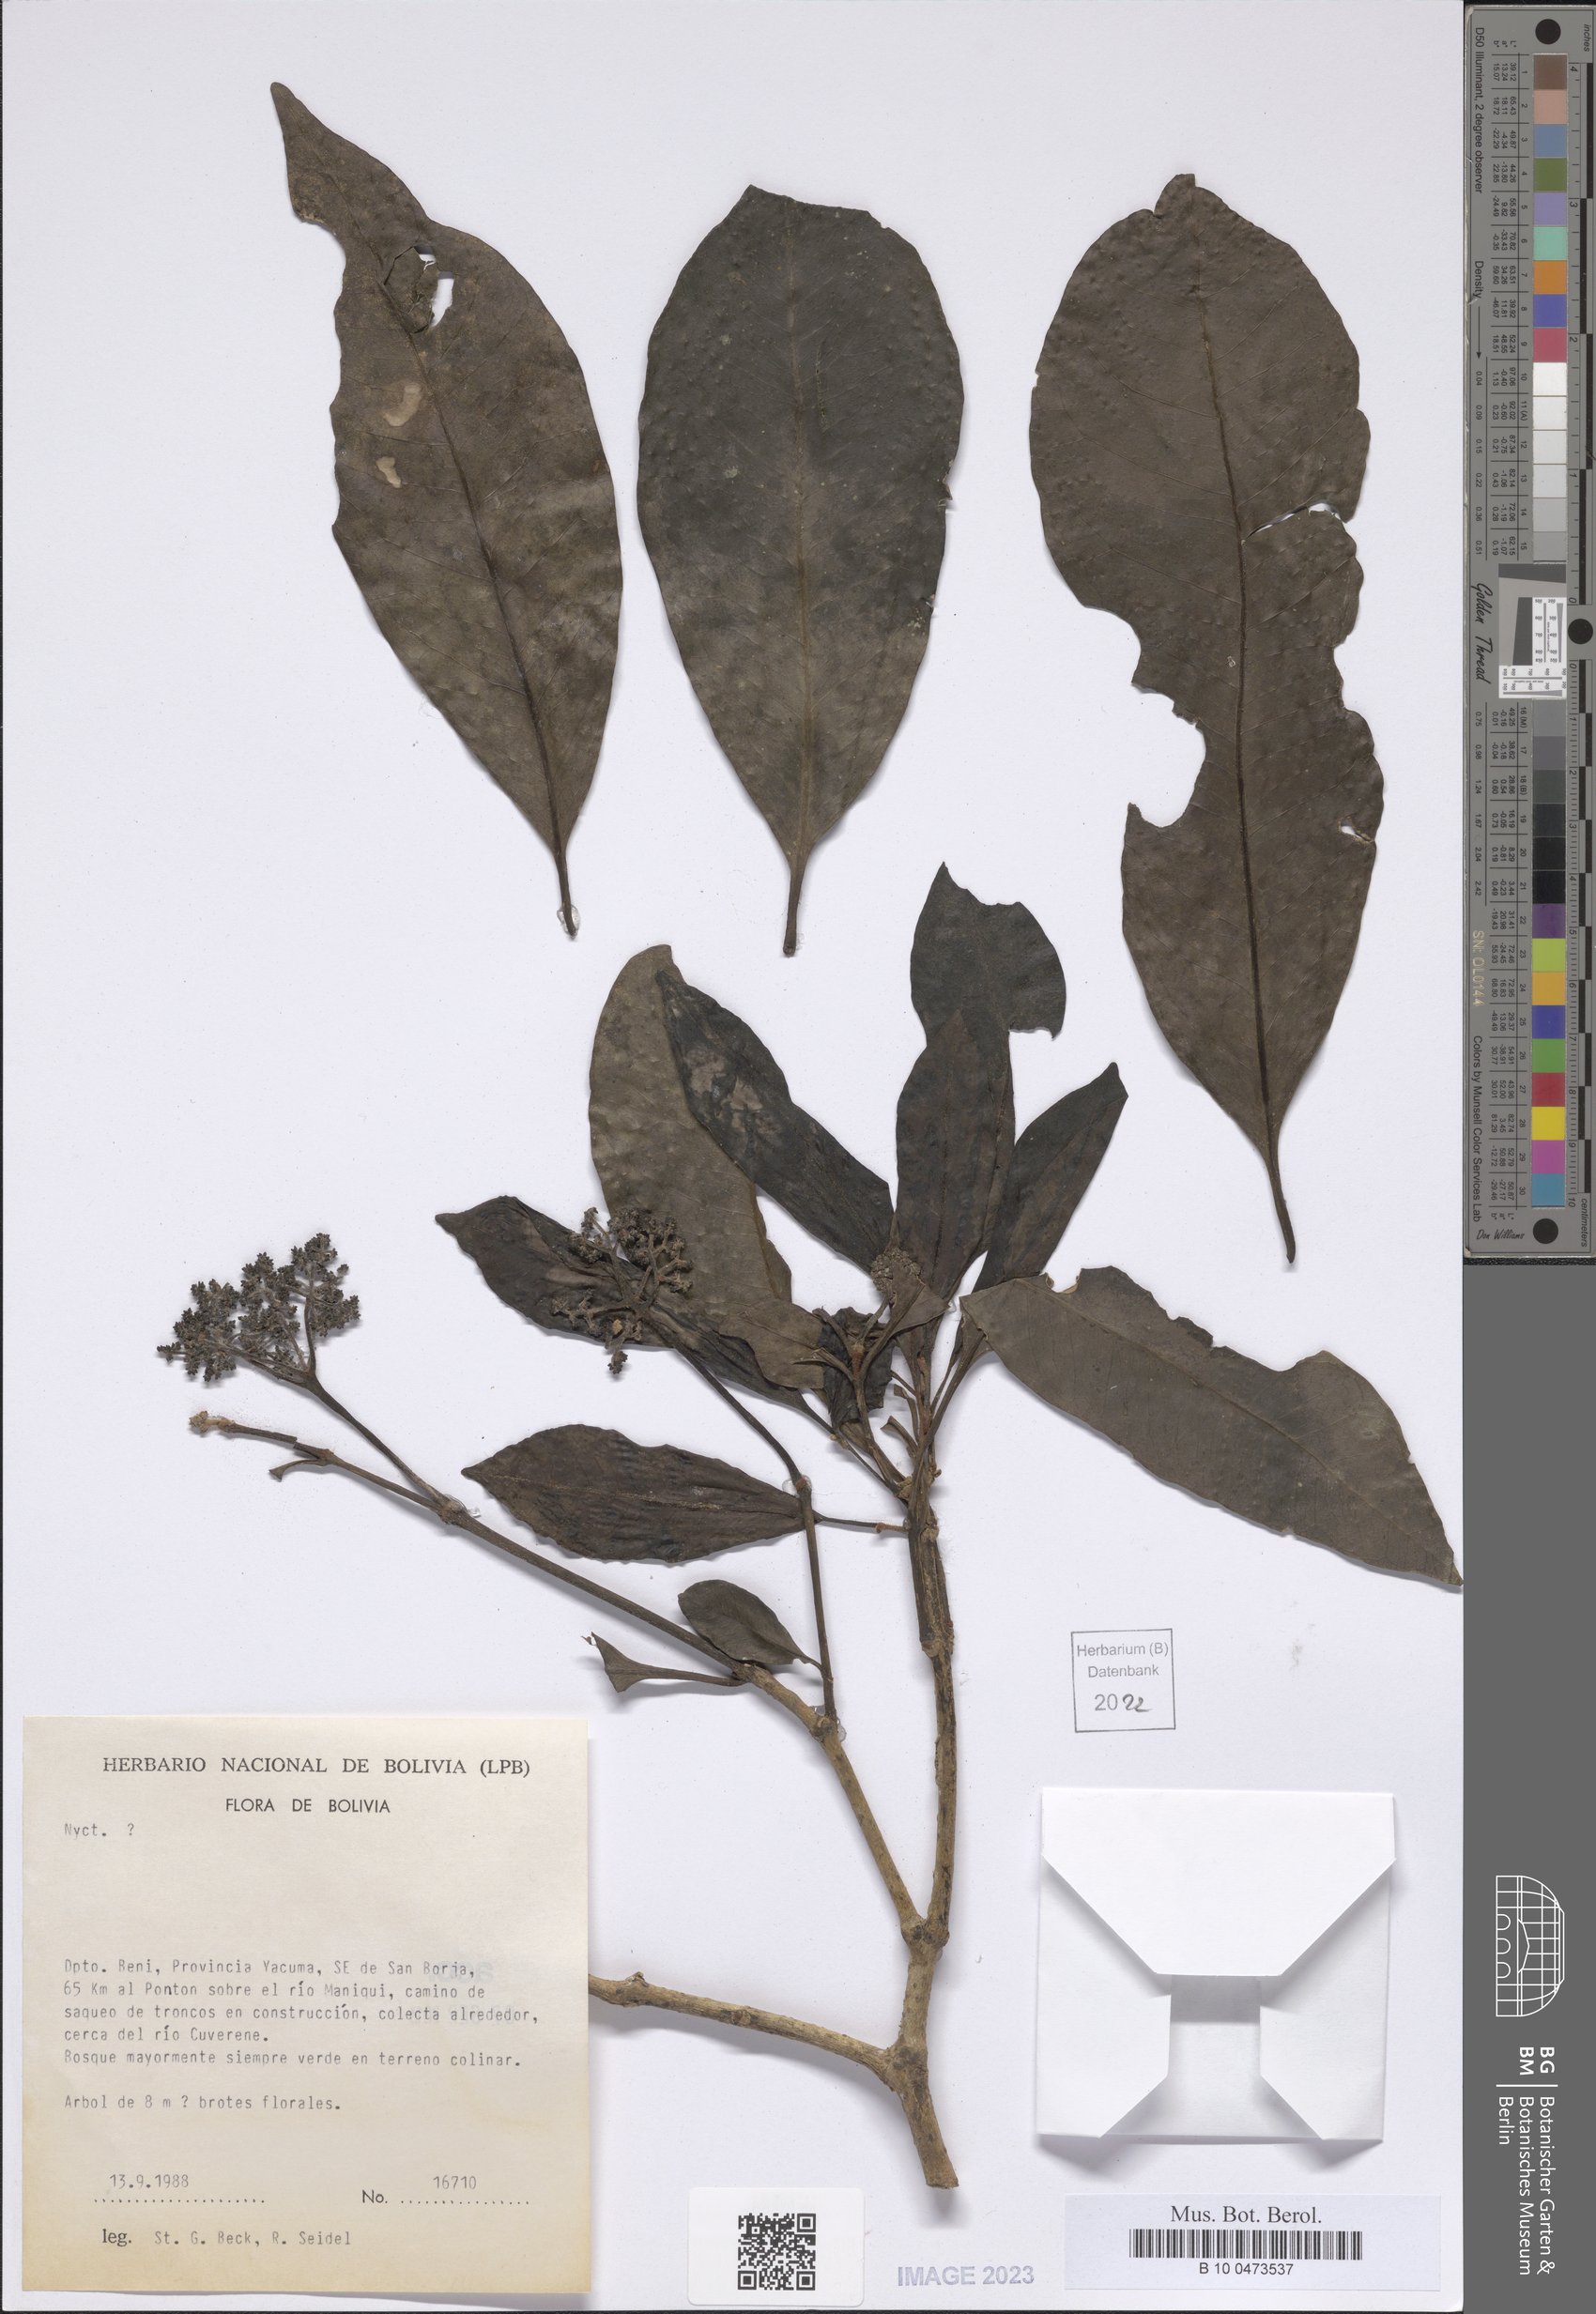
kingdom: Plantae
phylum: Tracheophyta
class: Magnoliopsida
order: Caryophyllales
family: Nyctaginaceae
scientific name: Nyctaginaceae
